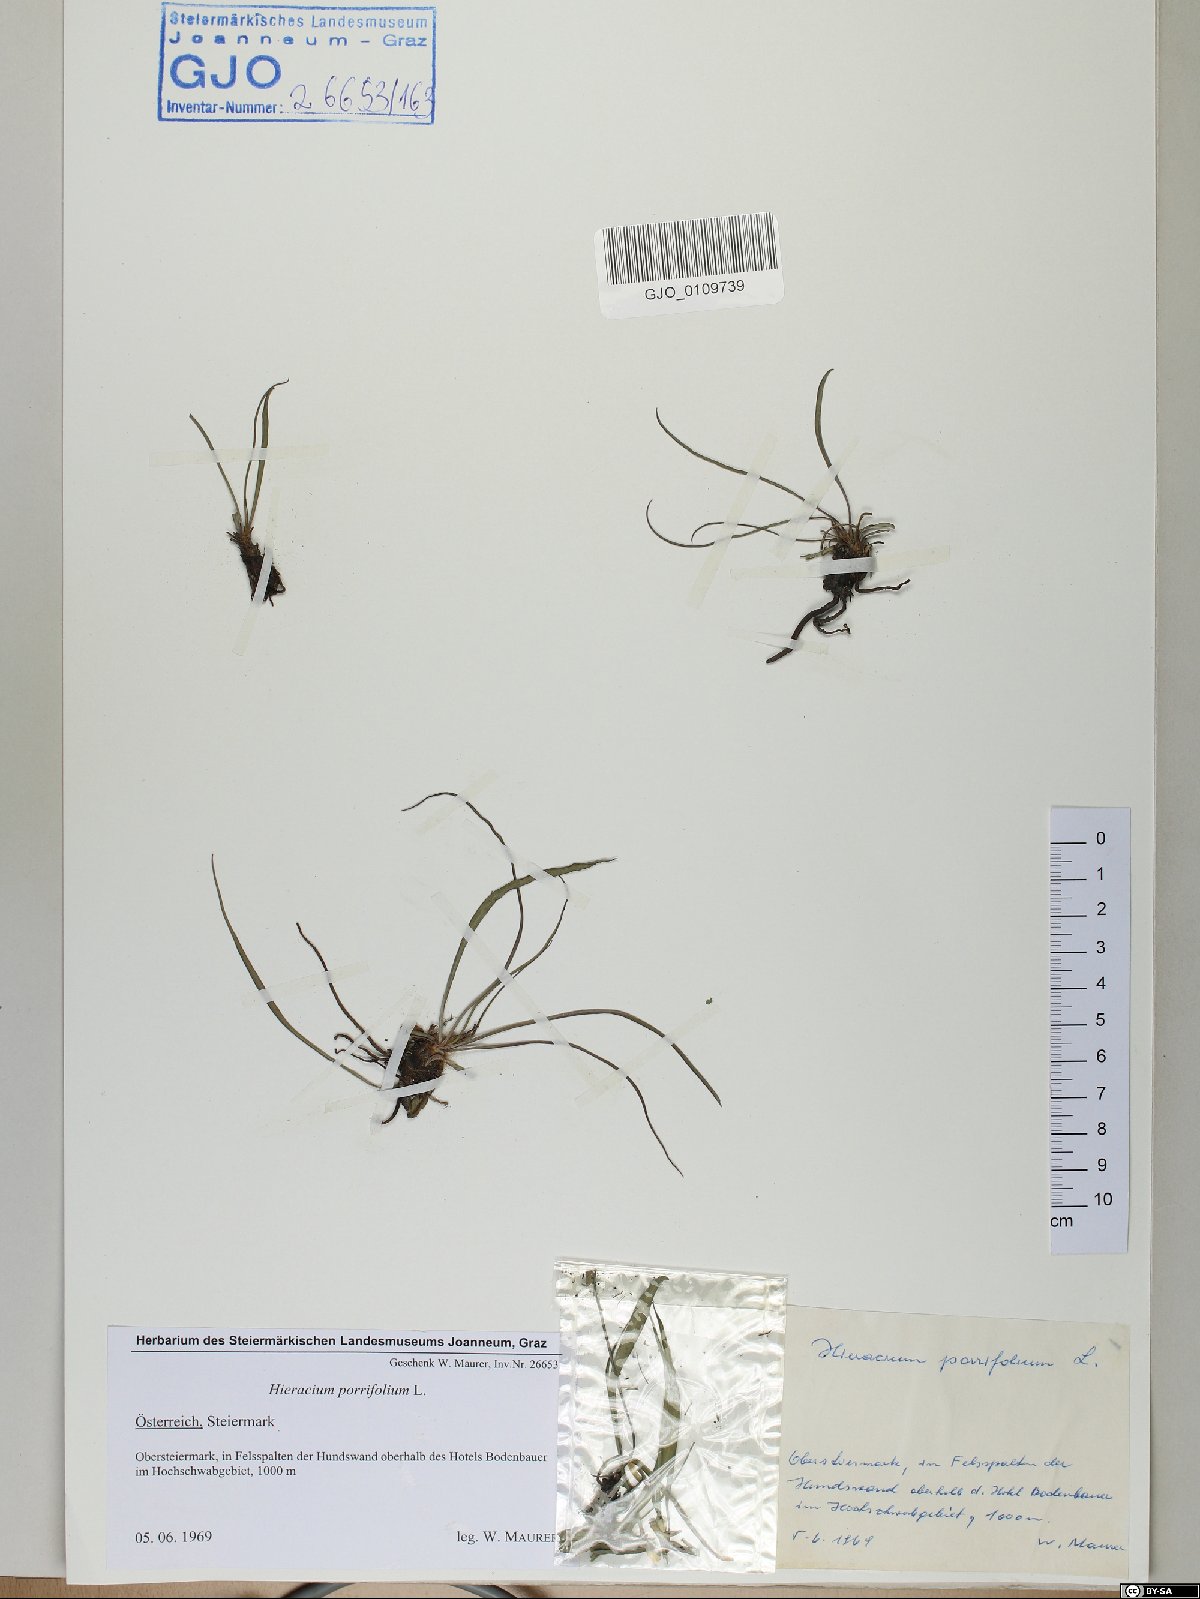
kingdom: Plantae
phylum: Tracheophyta
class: Magnoliopsida
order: Asterales
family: Asteraceae
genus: Hieracium
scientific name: Hieracium porrifolium
